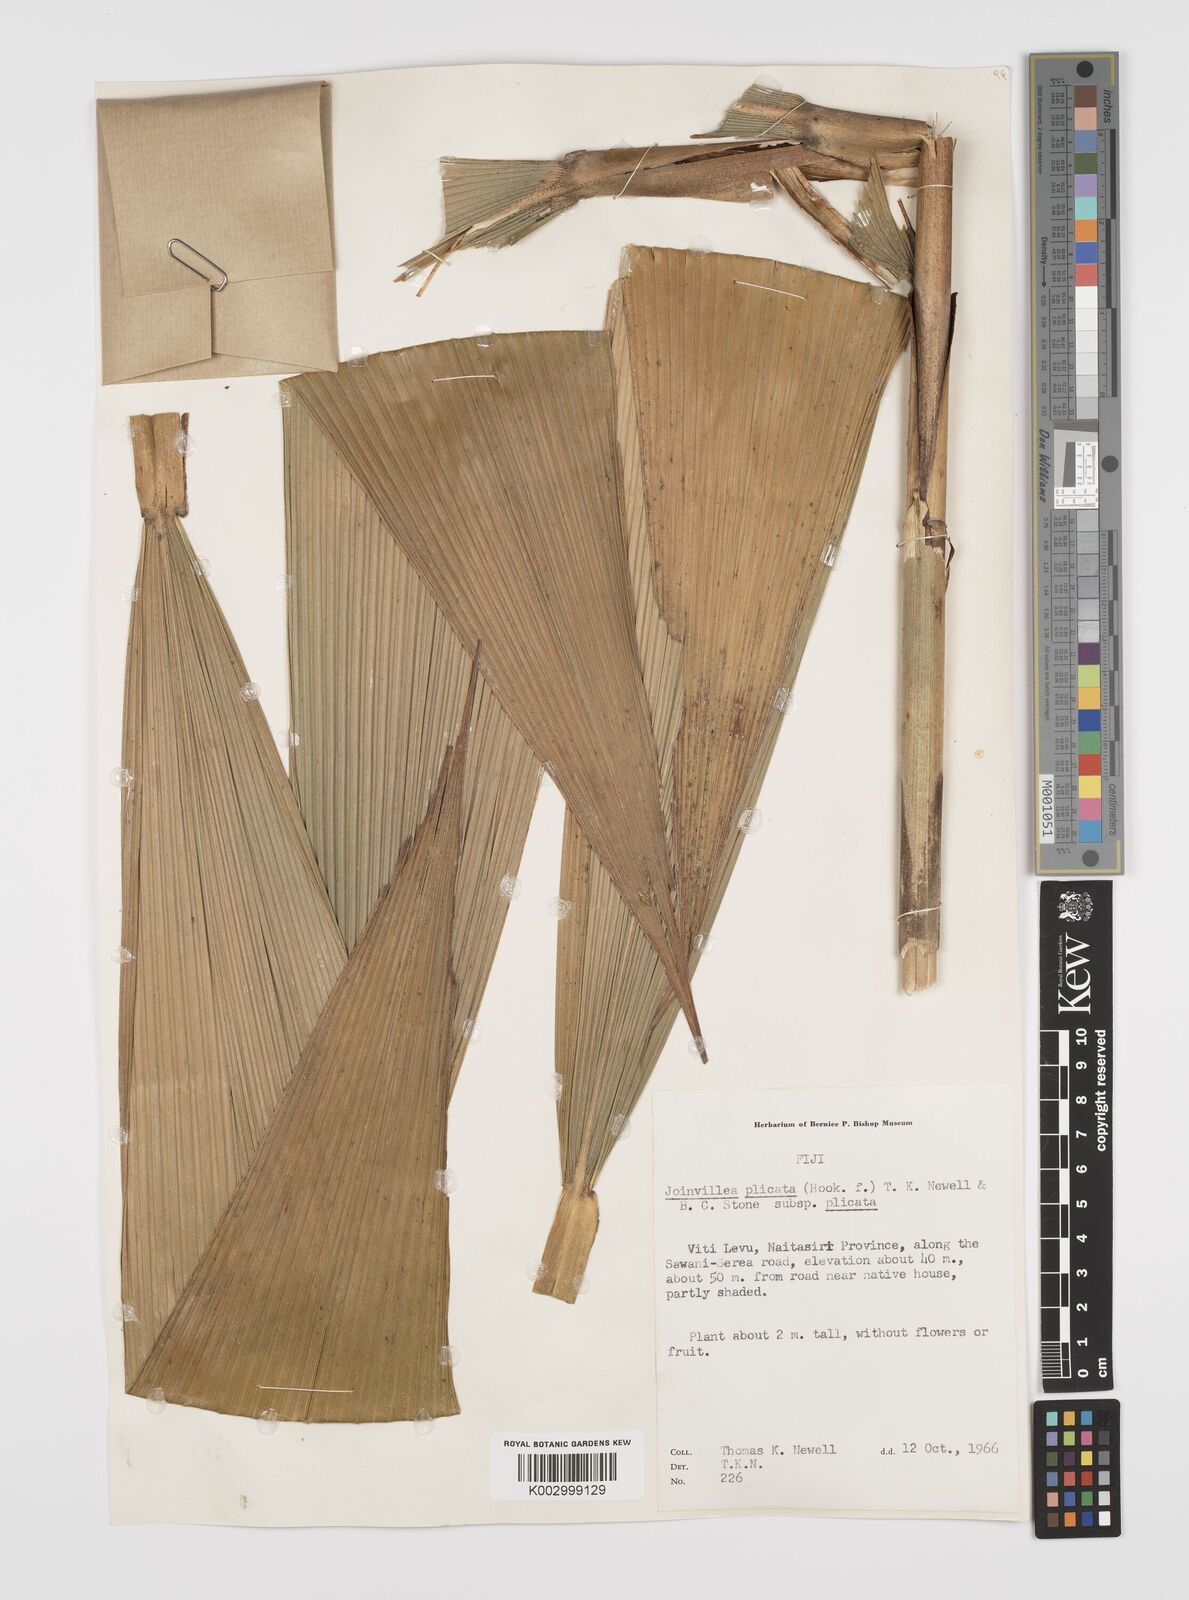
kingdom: Plantae
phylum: Tracheophyta
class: Liliopsida
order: Poales
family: Joinvilleaceae
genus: Joinvillea
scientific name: Joinvillea plicata
